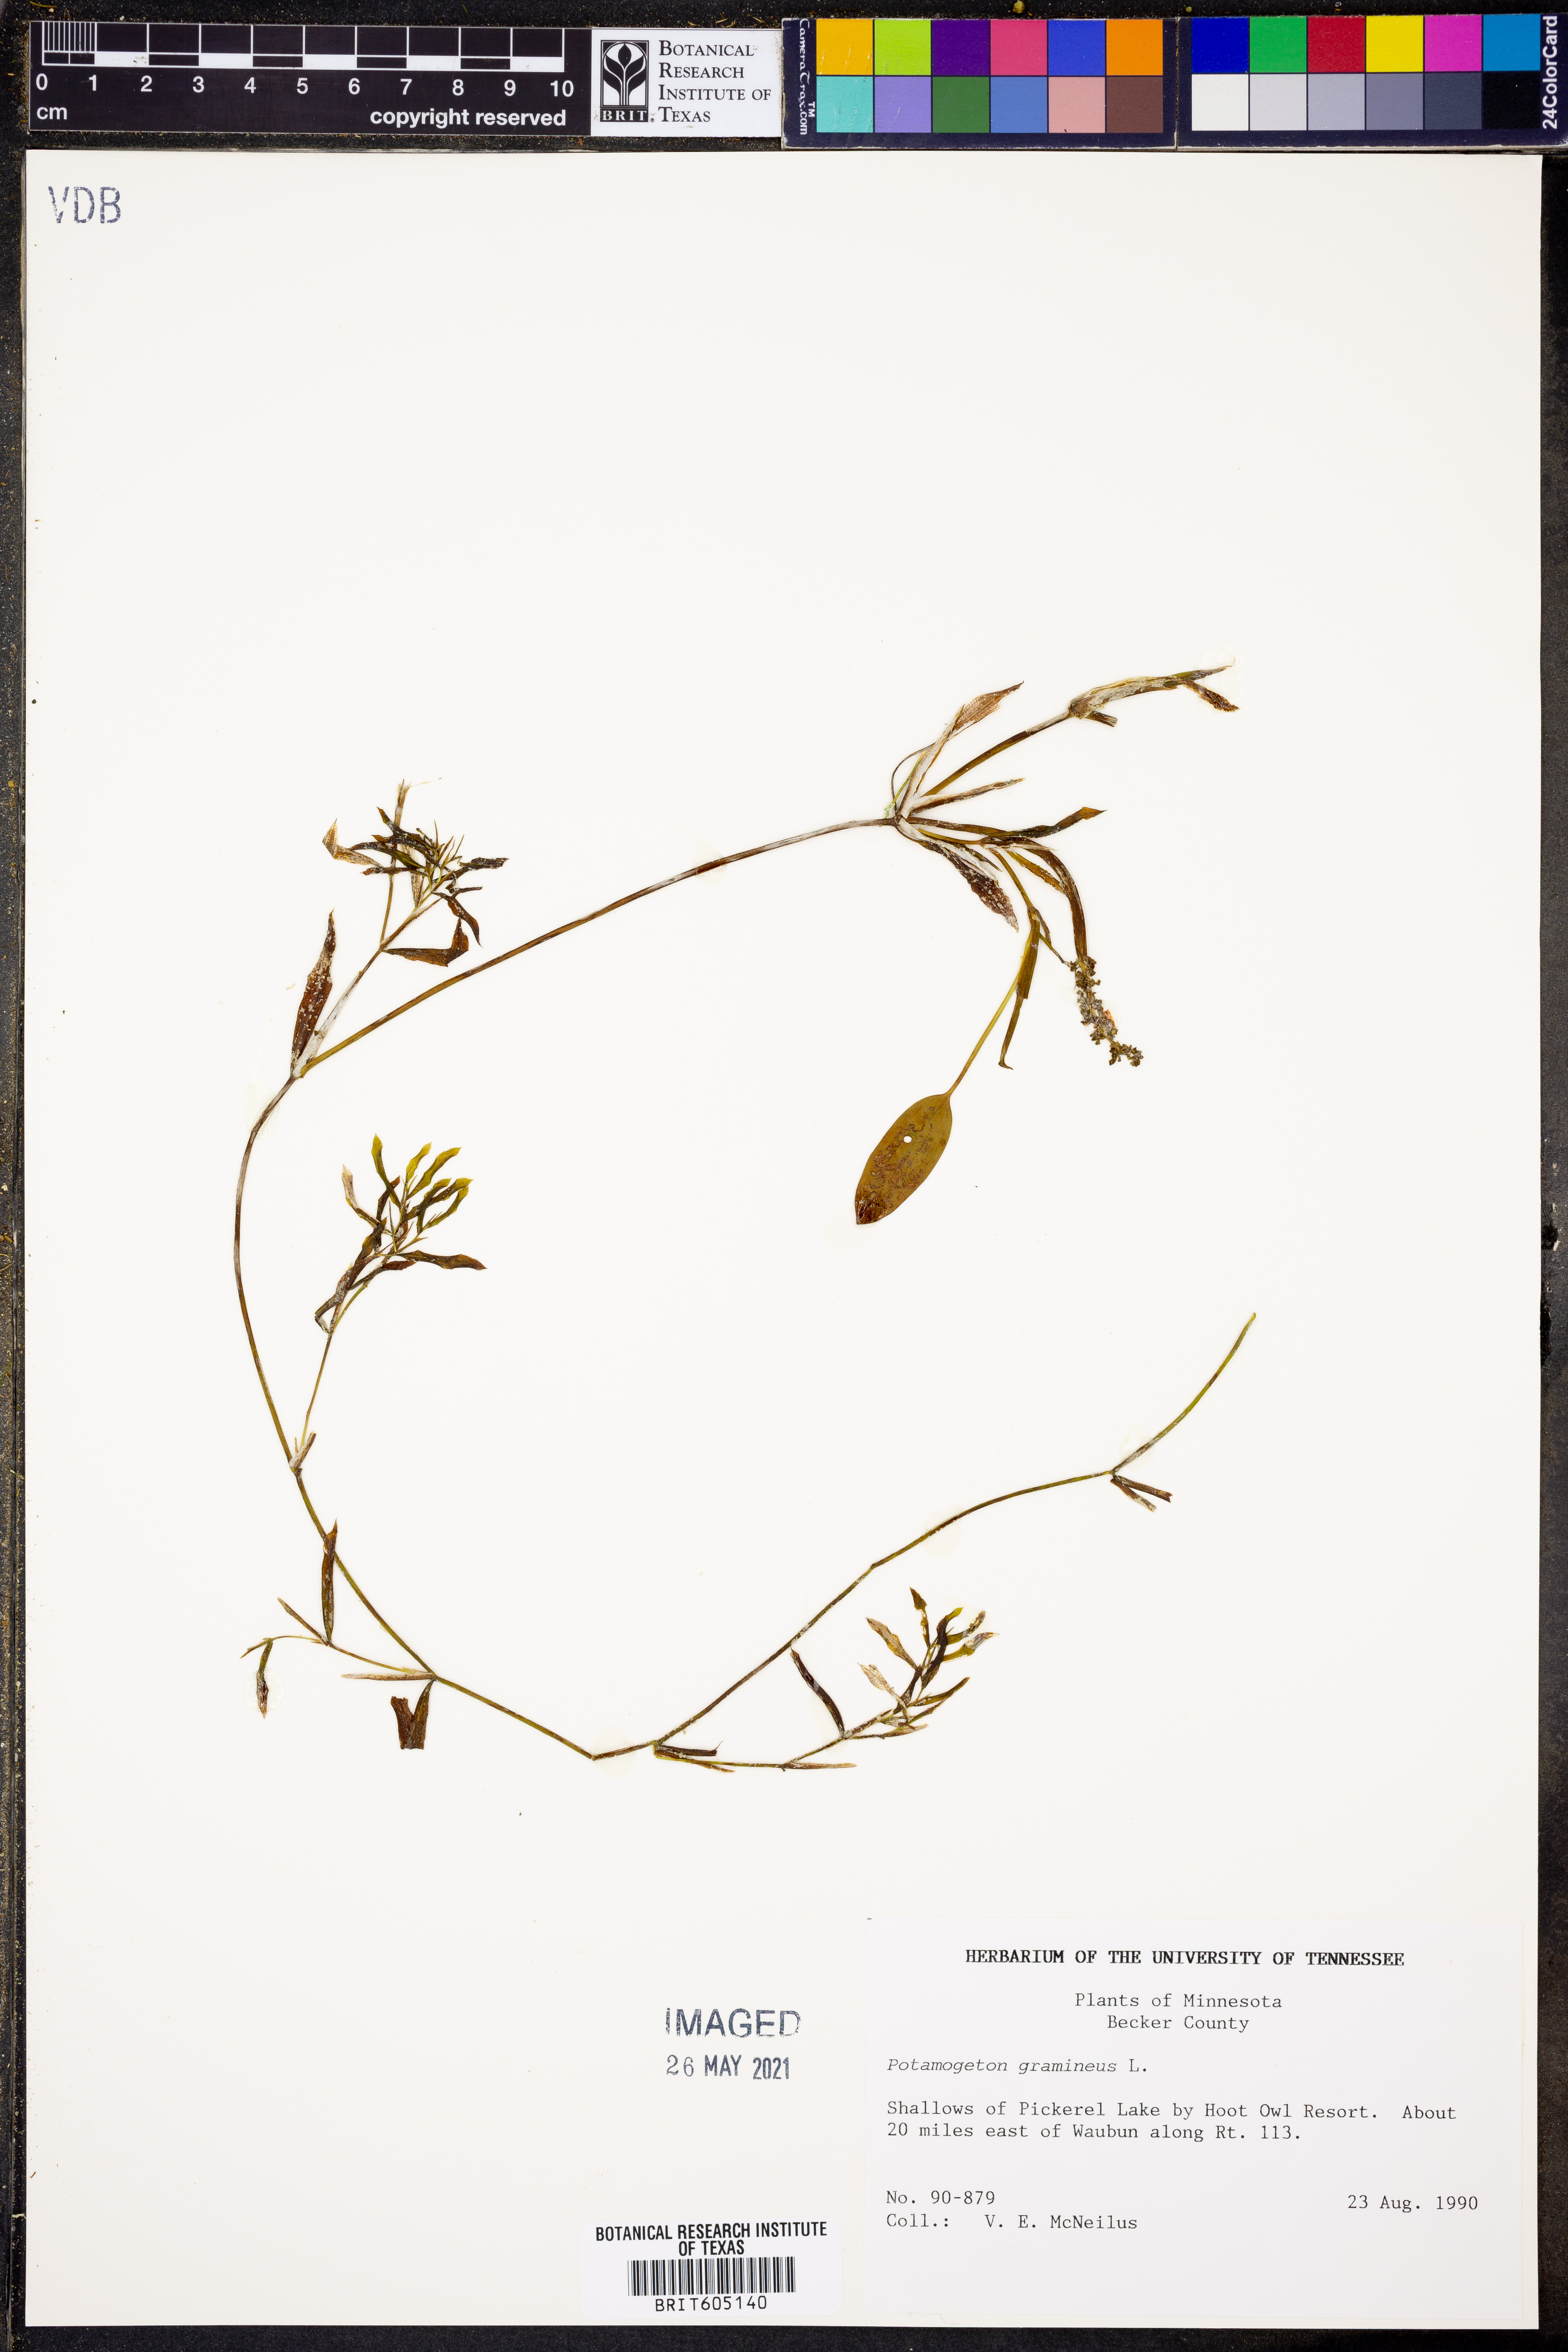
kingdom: Plantae
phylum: Tracheophyta
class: Liliopsida
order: Alismatales
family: Potamogetonaceae
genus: Potamogeton
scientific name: Potamogeton gramineus
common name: Various-leaved pondweed
